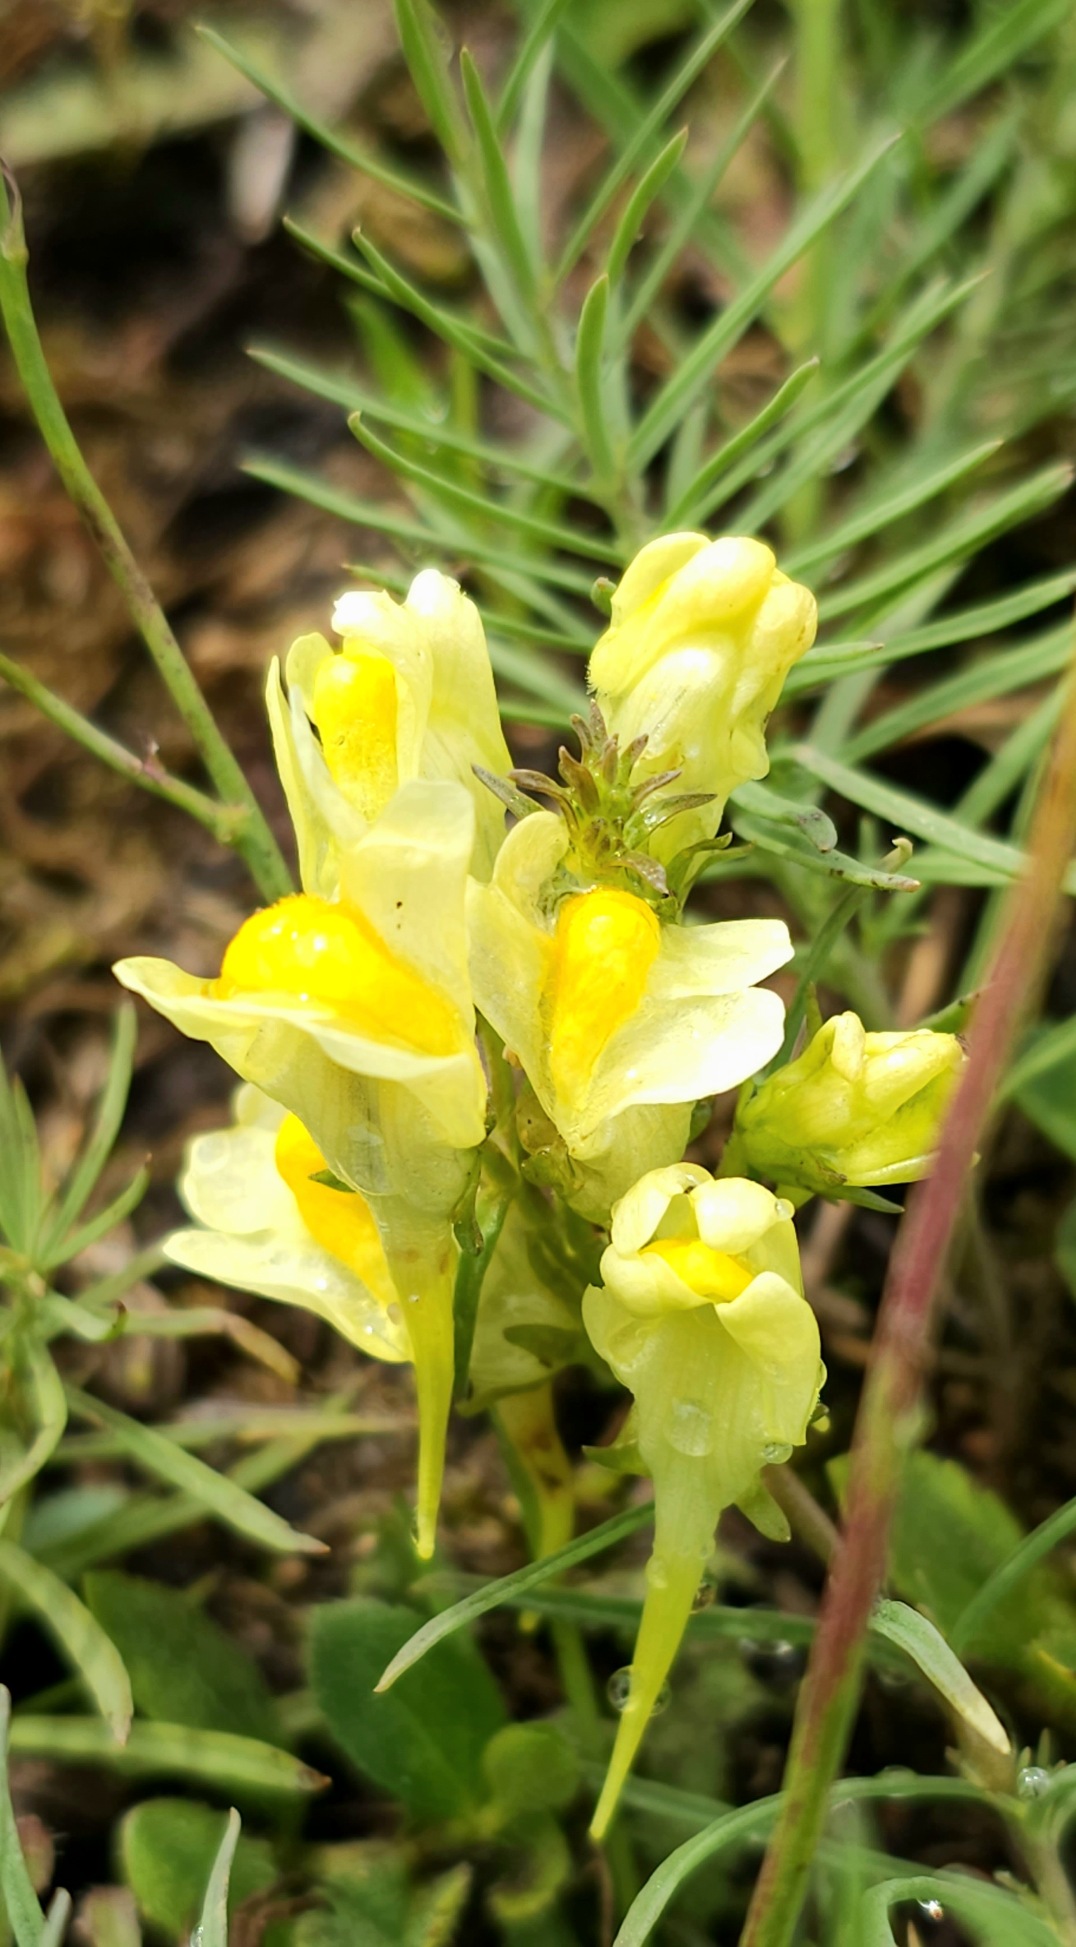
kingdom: Plantae
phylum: Tracheophyta
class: Magnoliopsida
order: Lamiales
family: Plantaginaceae
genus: Linaria
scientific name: Linaria vulgaris
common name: Almindelig torskemund
